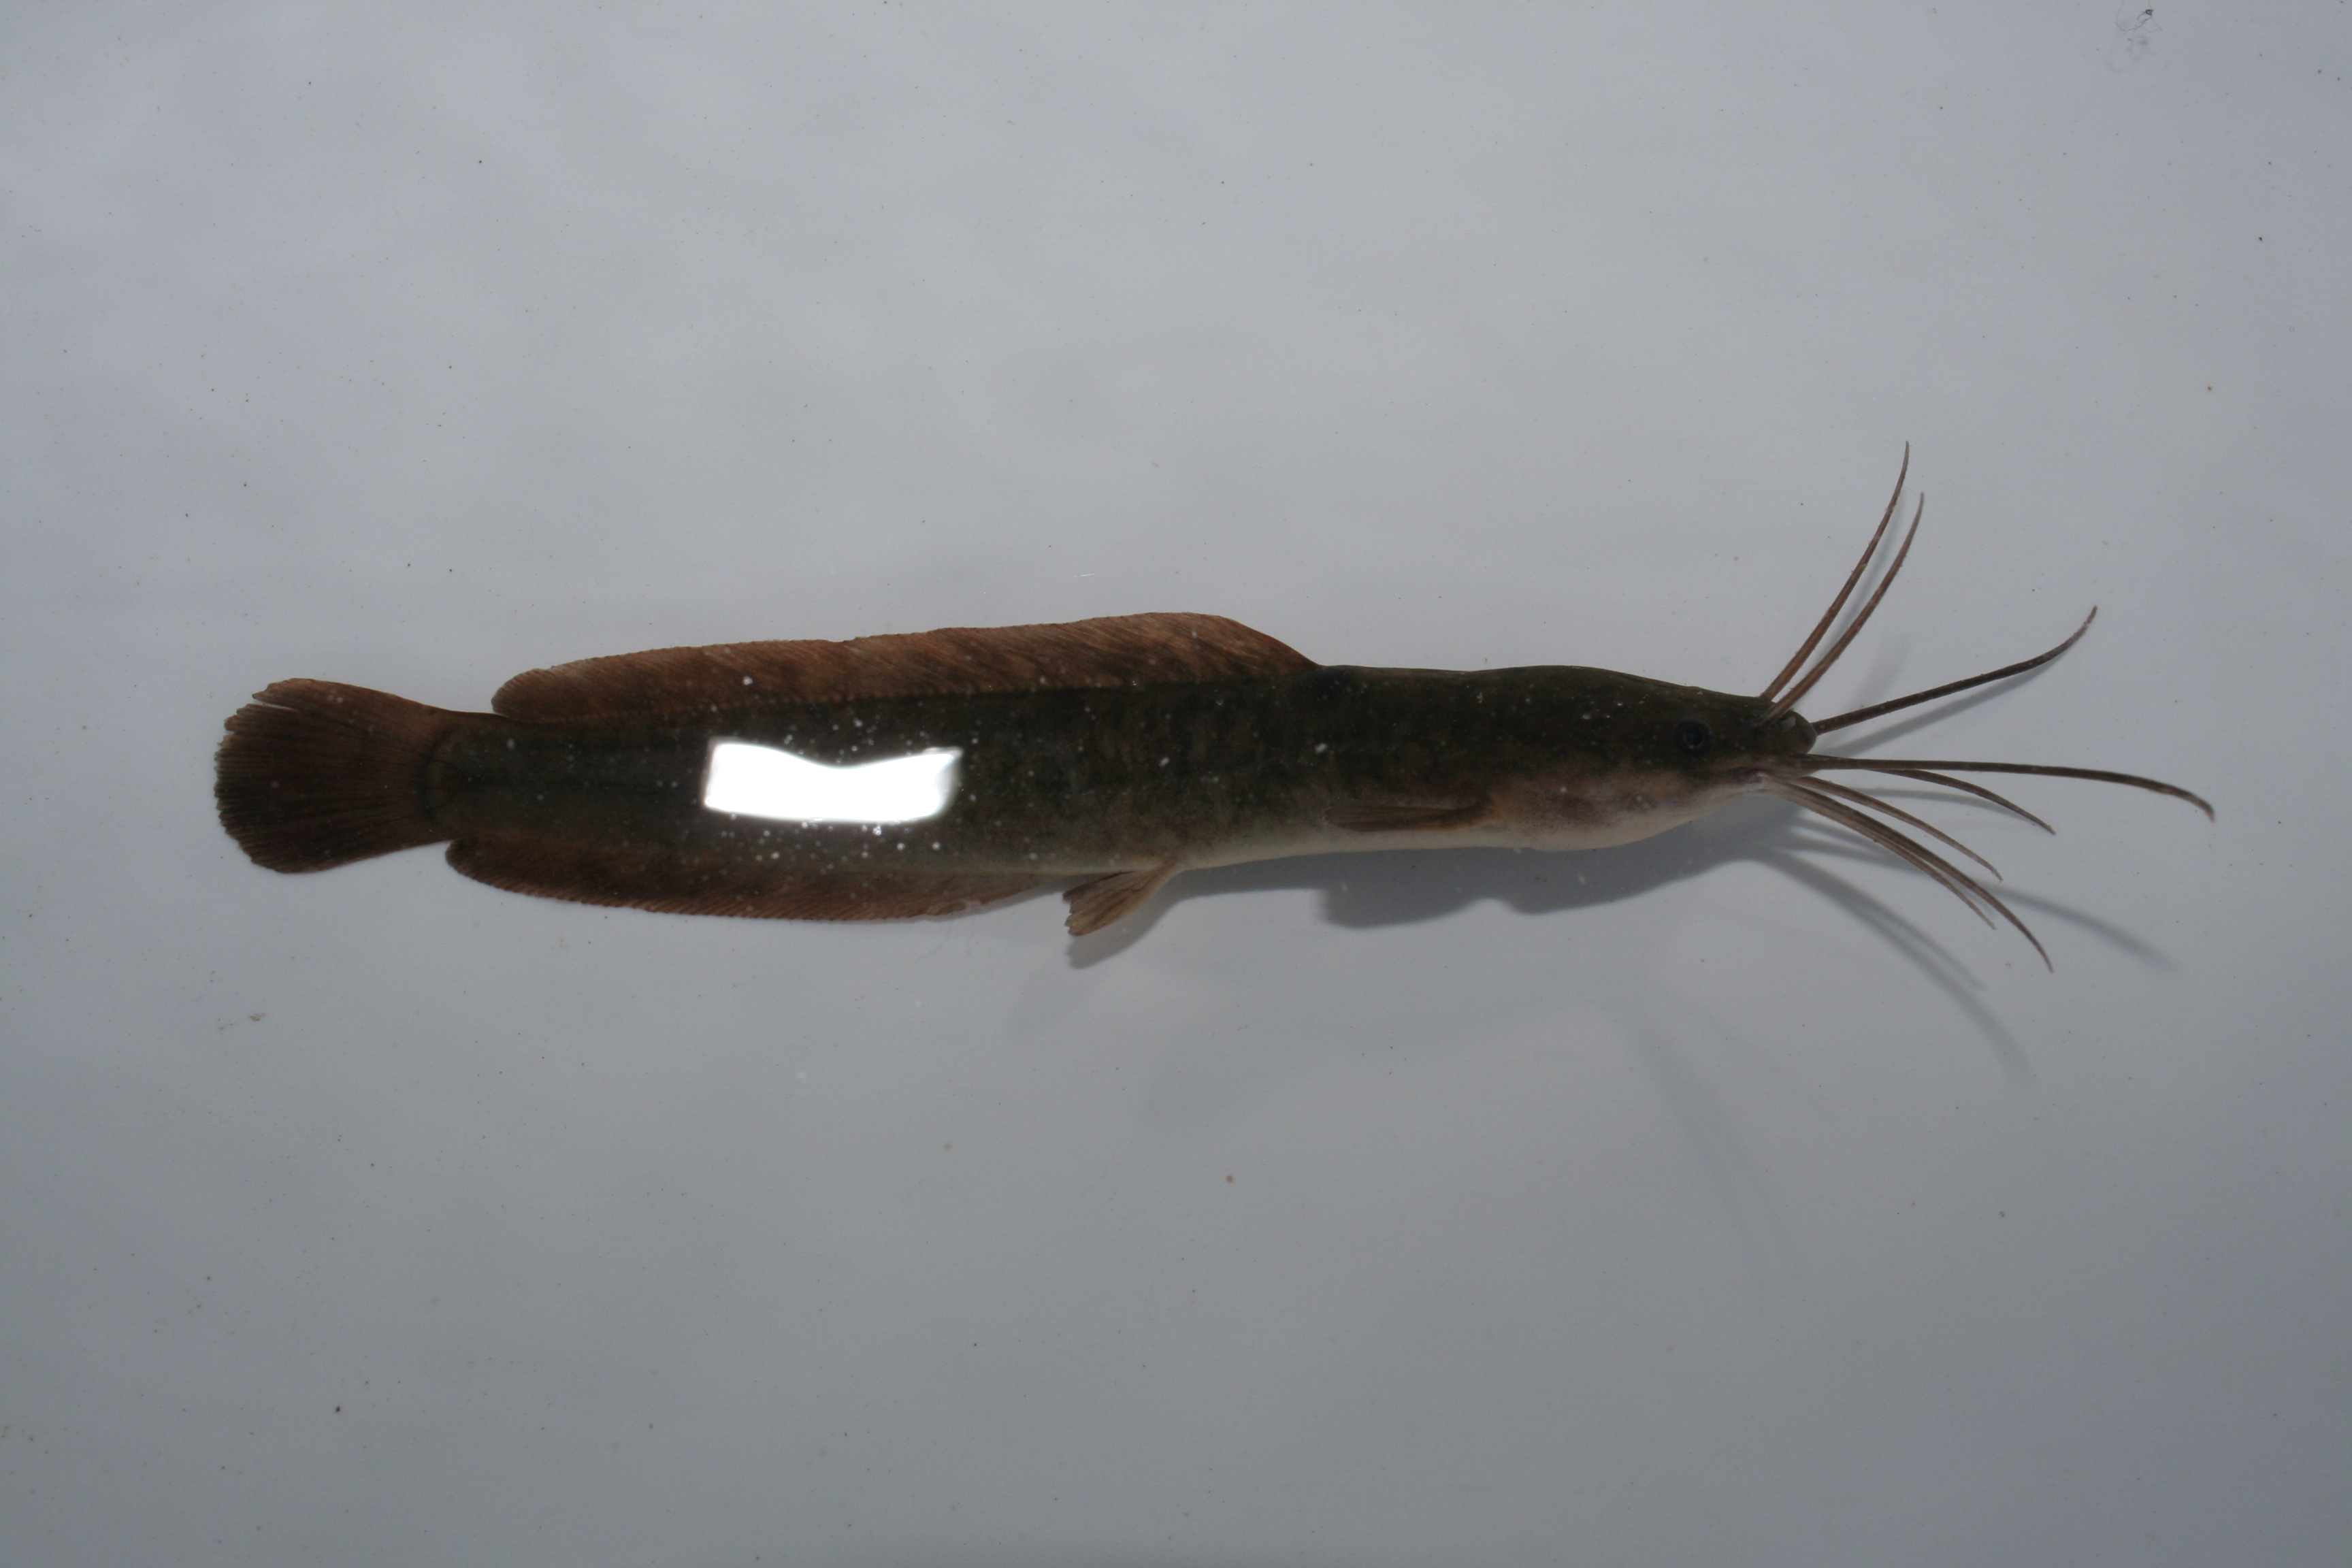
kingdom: Animalia
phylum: Chordata
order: Siluriformes
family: Clariidae
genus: Clarias
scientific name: Clarias gariepinus
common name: African catfish
